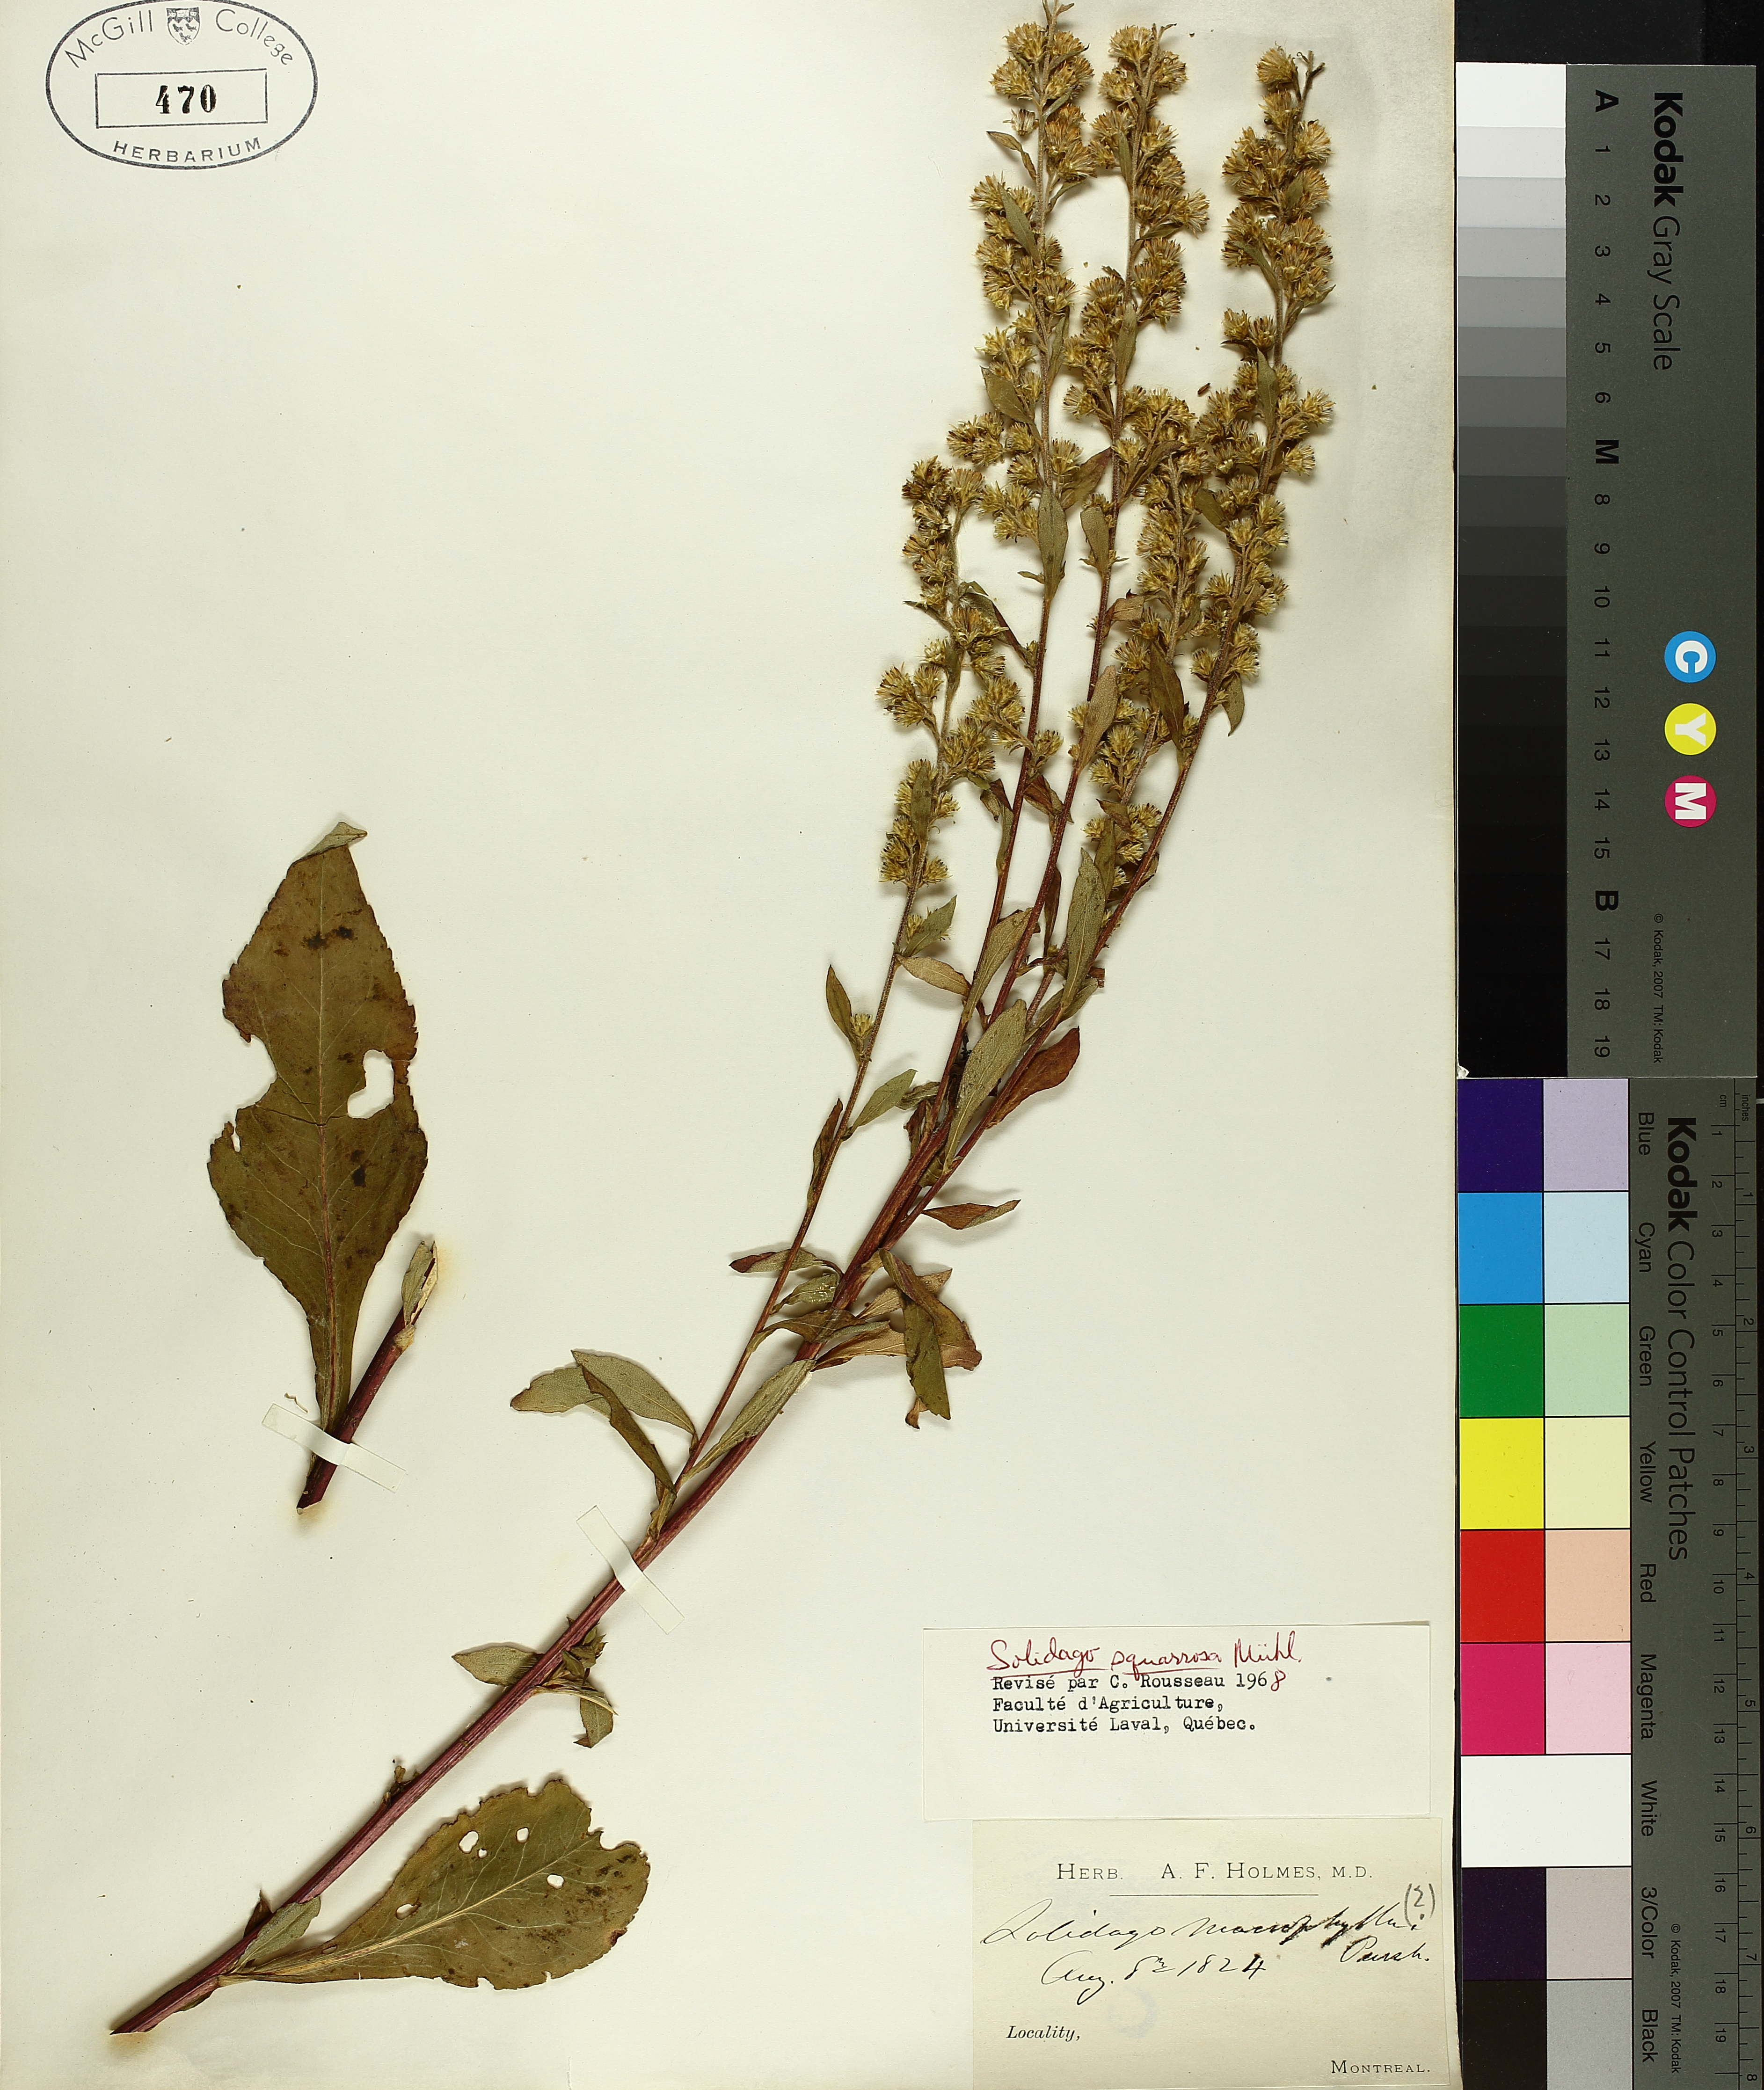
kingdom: Plantae
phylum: Tracheophyta
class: Magnoliopsida
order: Asterales
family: Asteraceae
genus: Solidago
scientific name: Solidago petiolaris
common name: Downy ragged goldenrod
